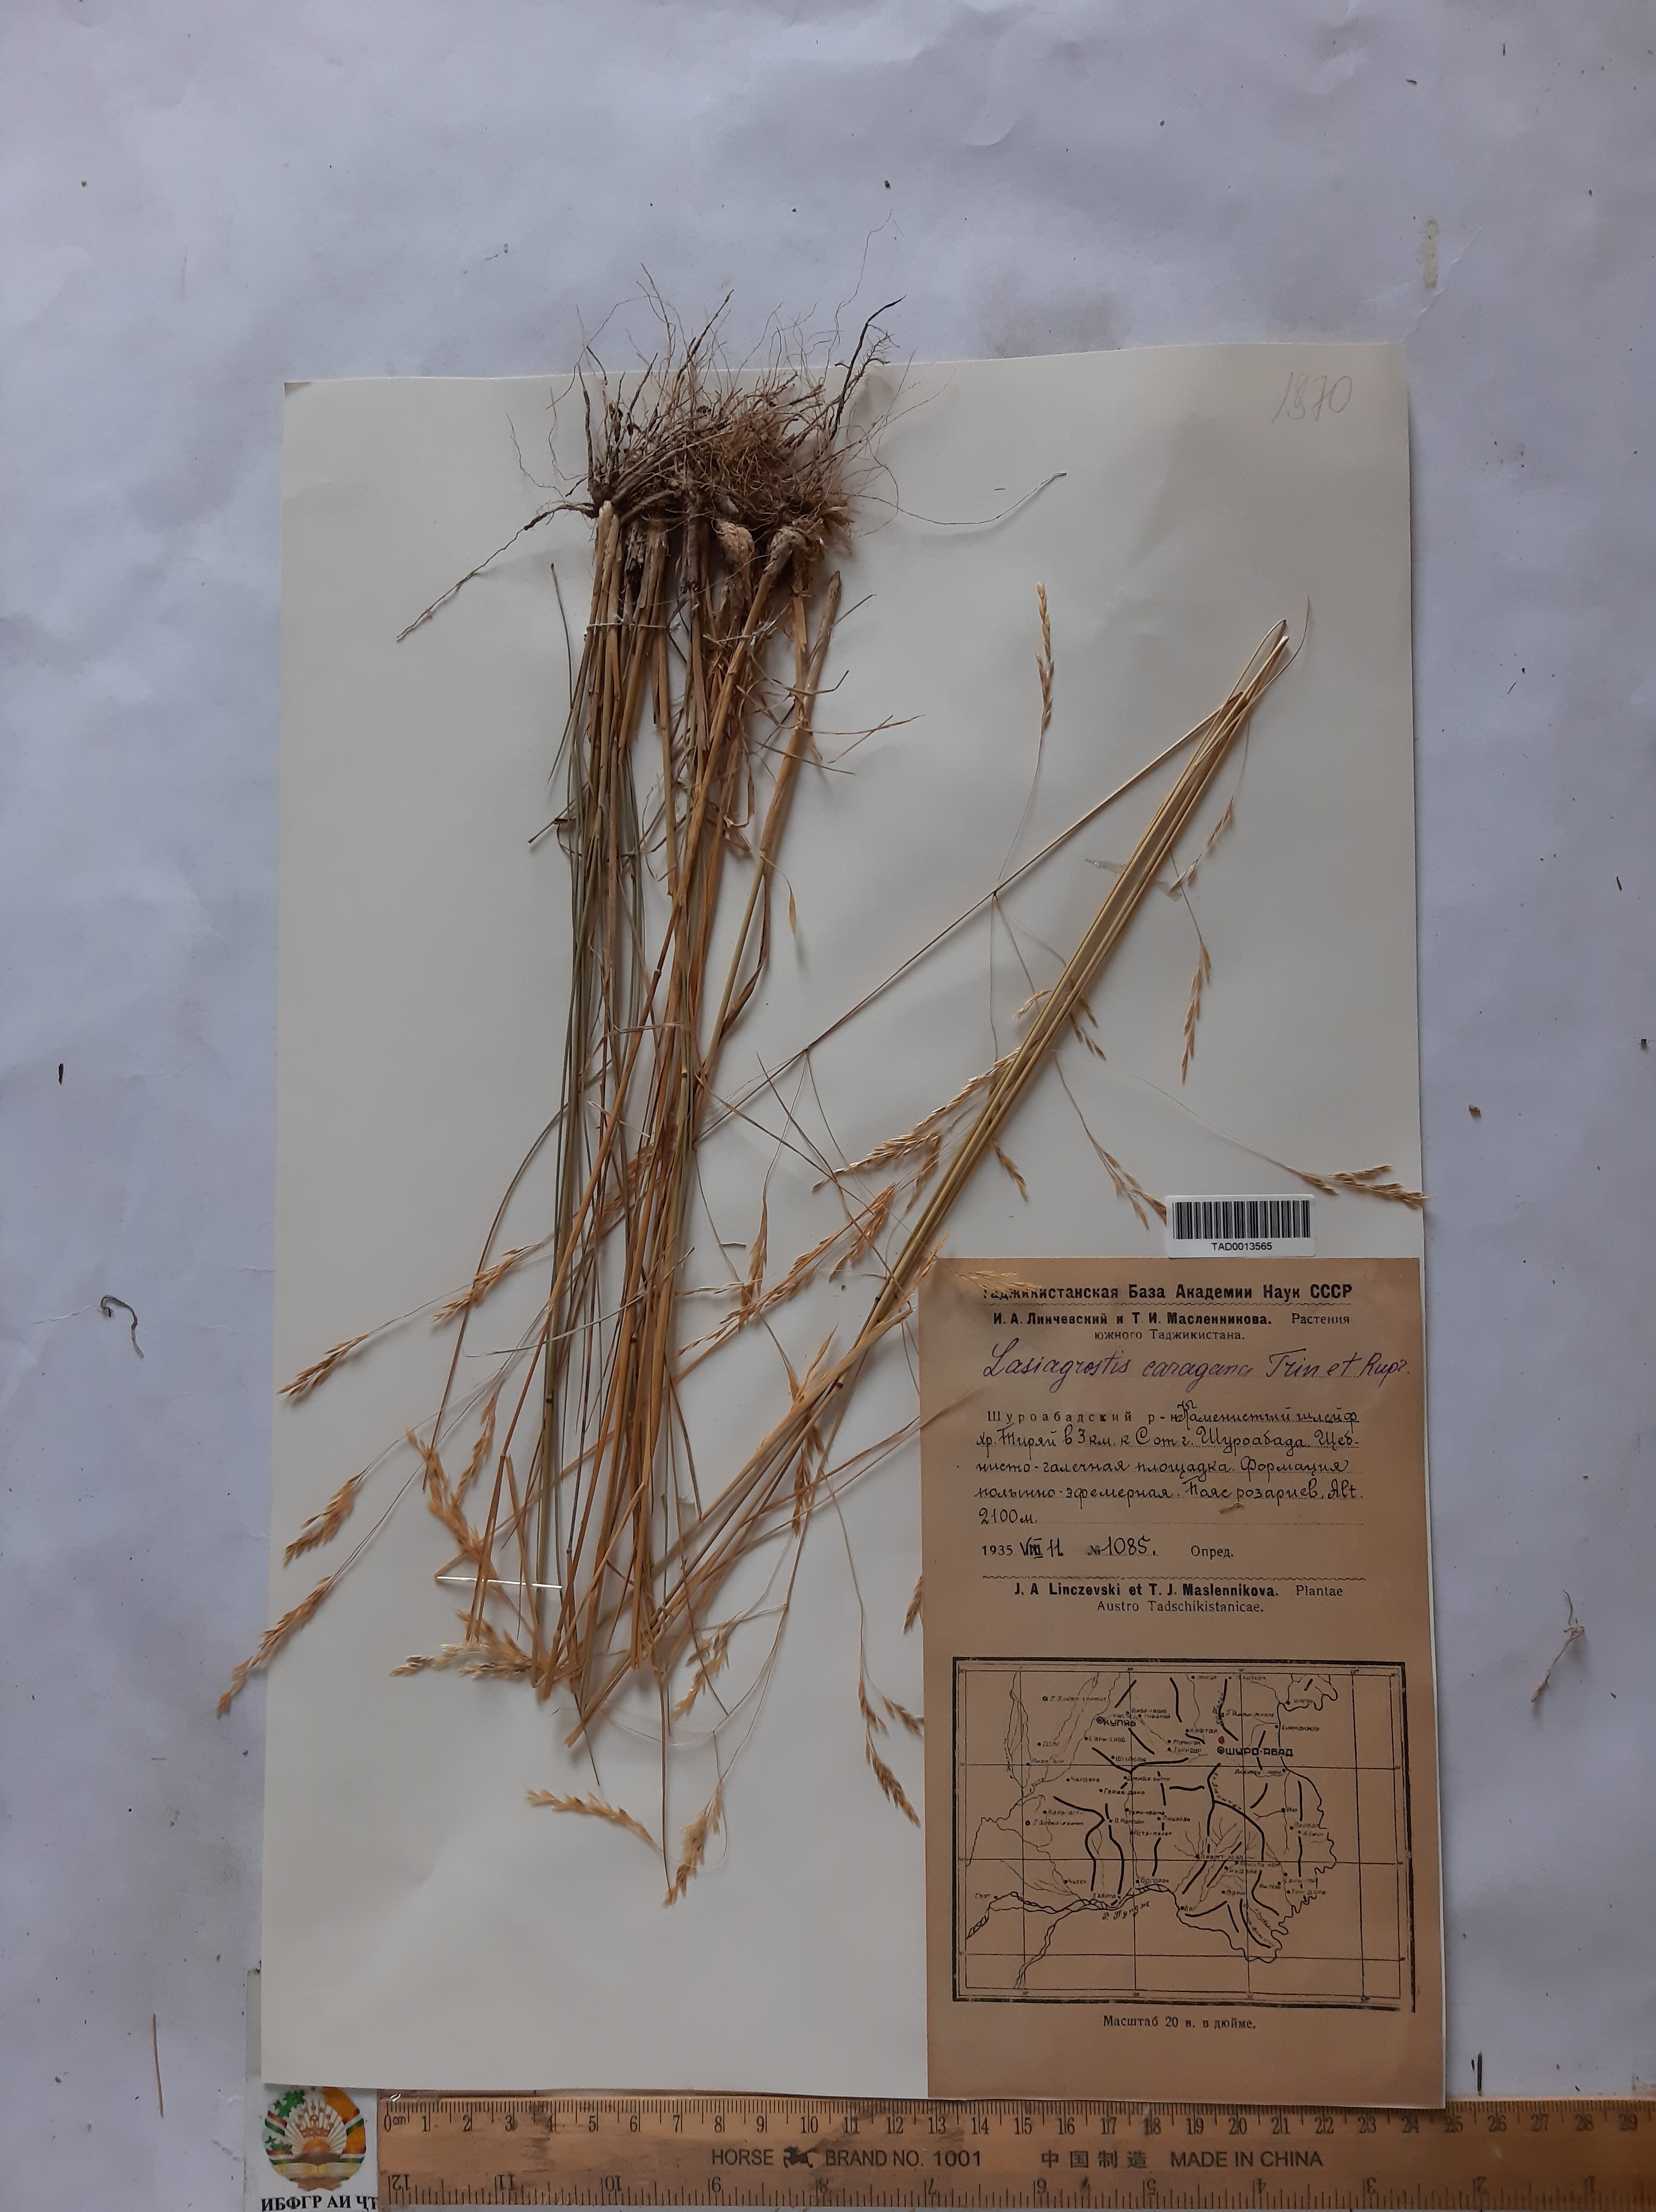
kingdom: Plantae
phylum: Tracheophyta
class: Liliopsida
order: Poales
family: Poaceae
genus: Stipa
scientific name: Stipa conferta
